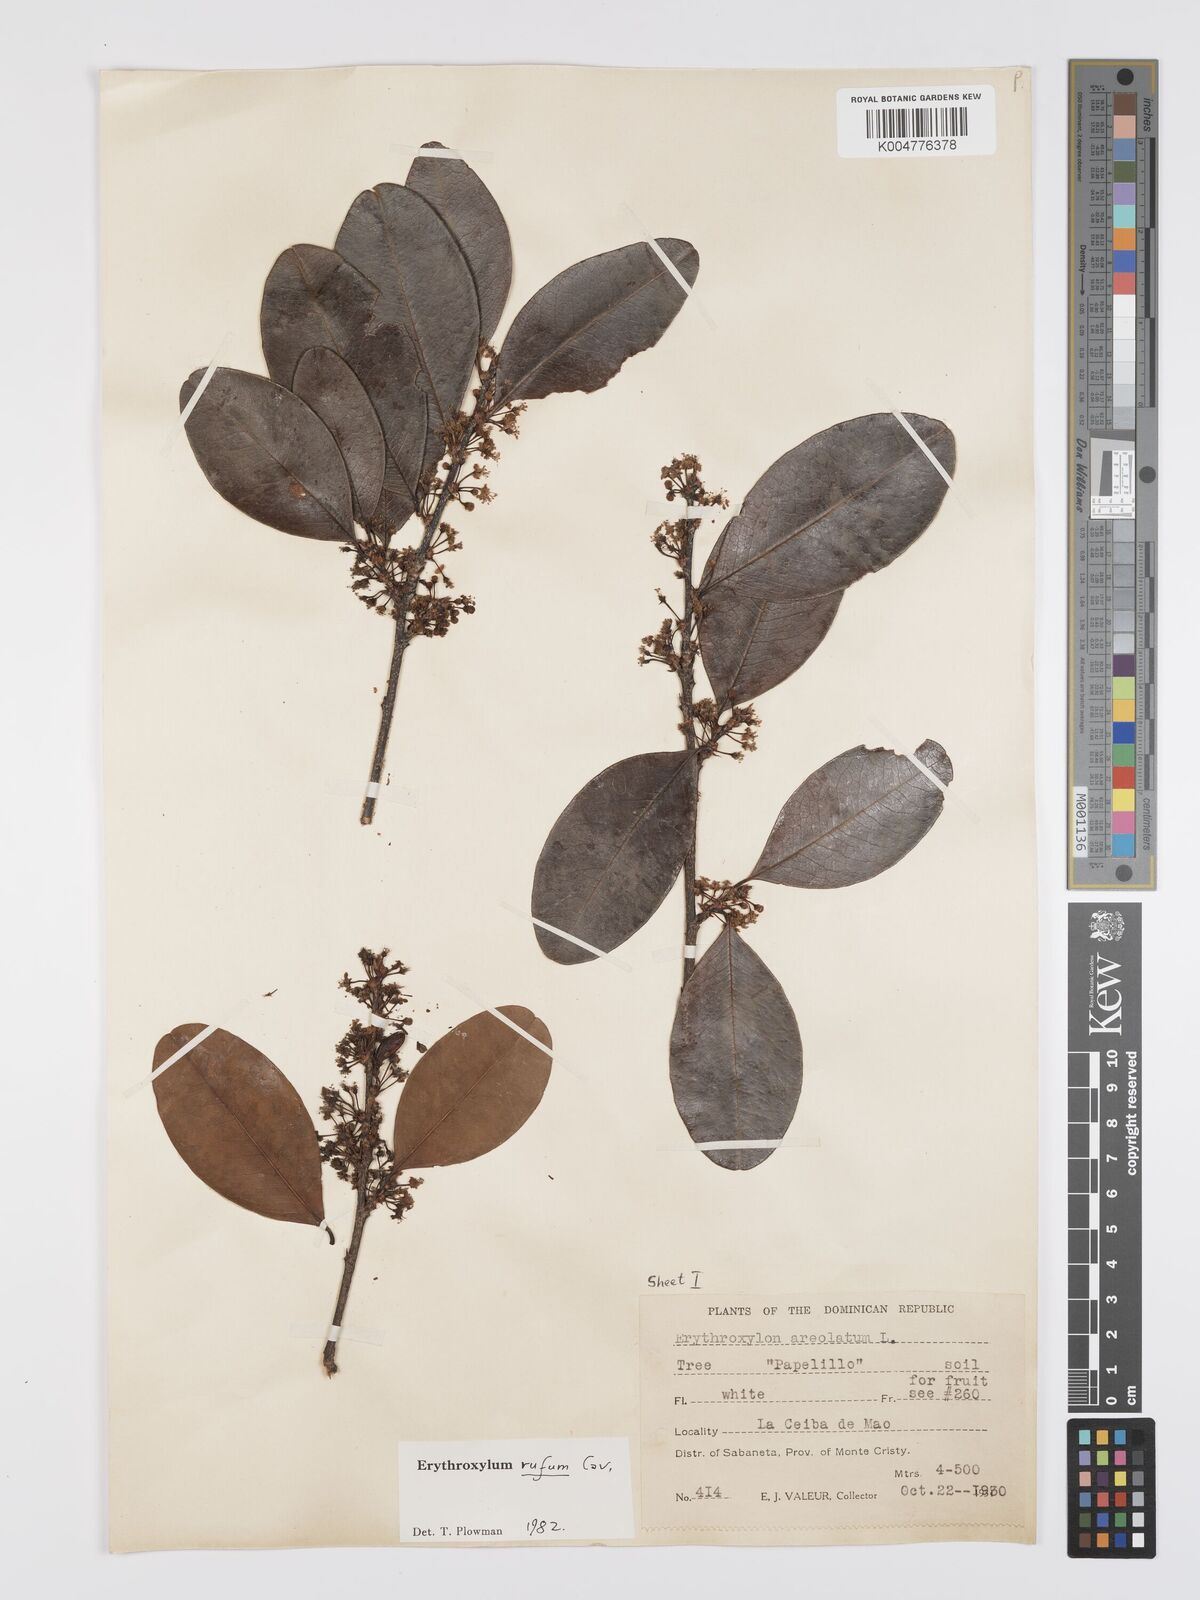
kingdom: Plantae
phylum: Tracheophyta
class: Magnoliopsida
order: Malpighiales
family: Erythroxylaceae
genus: Erythroxylum
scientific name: Erythroxylum rufum
